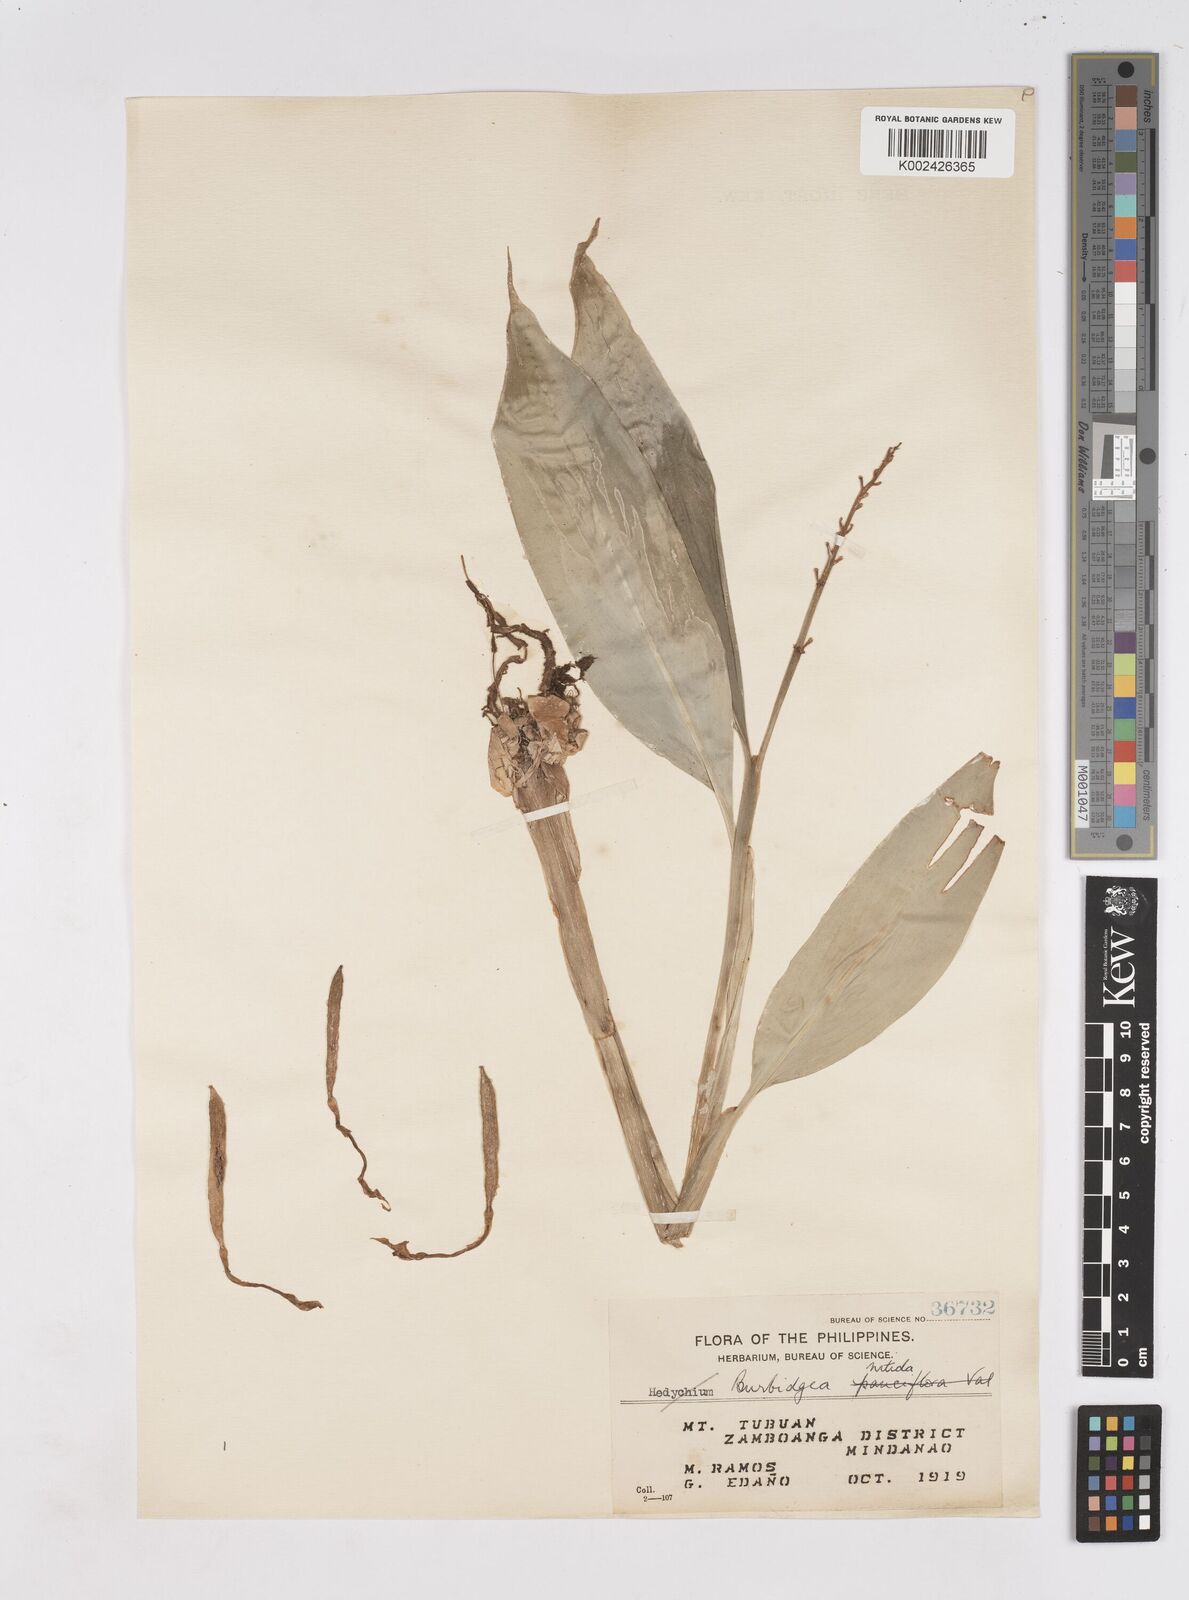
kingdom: Plantae
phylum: Tracheophyta
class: Liliopsida
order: Zingiberales
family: Zingiberaceae
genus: Burbidgea
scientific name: Burbidgea nitida
